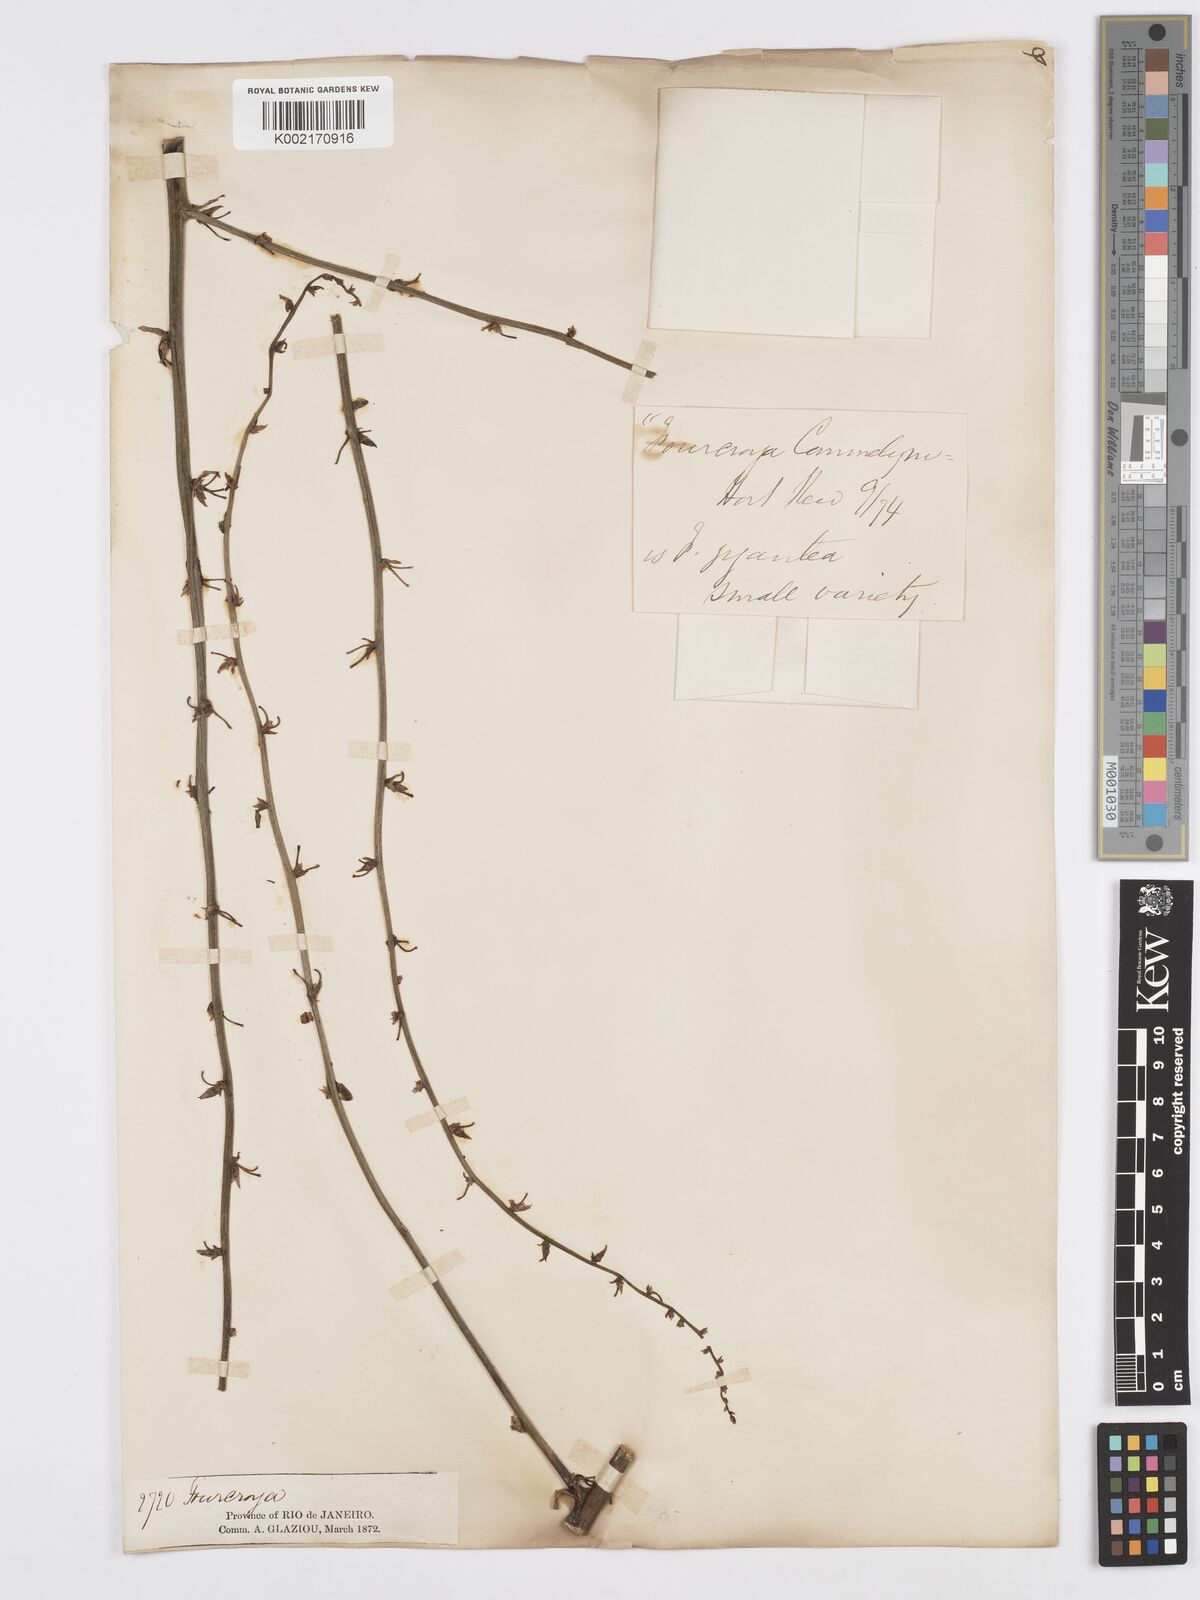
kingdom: Plantae
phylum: Tracheophyta
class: Liliopsida
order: Asparagales
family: Asparagaceae
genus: Furcraea
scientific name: Furcraea
